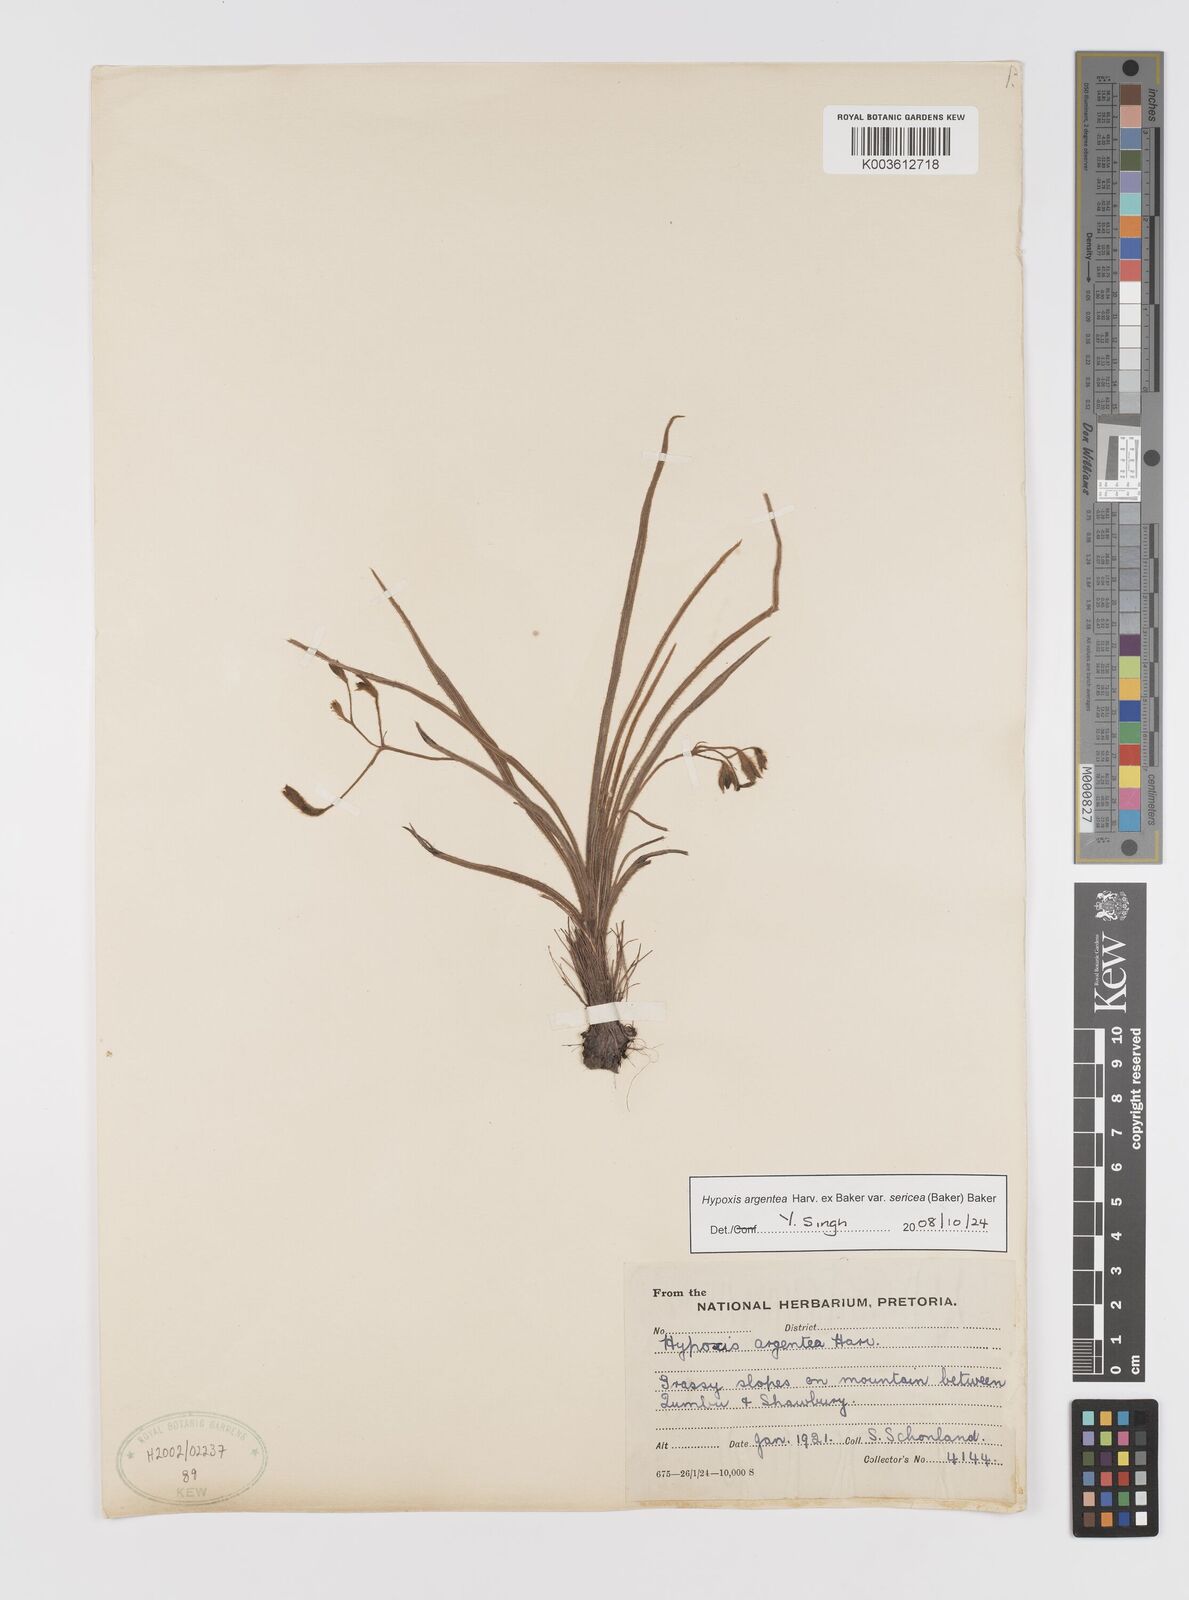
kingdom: Plantae
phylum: Tracheophyta
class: Liliopsida
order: Asparagales
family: Hypoxidaceae
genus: Hypoxis
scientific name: Hypoxis argentea
